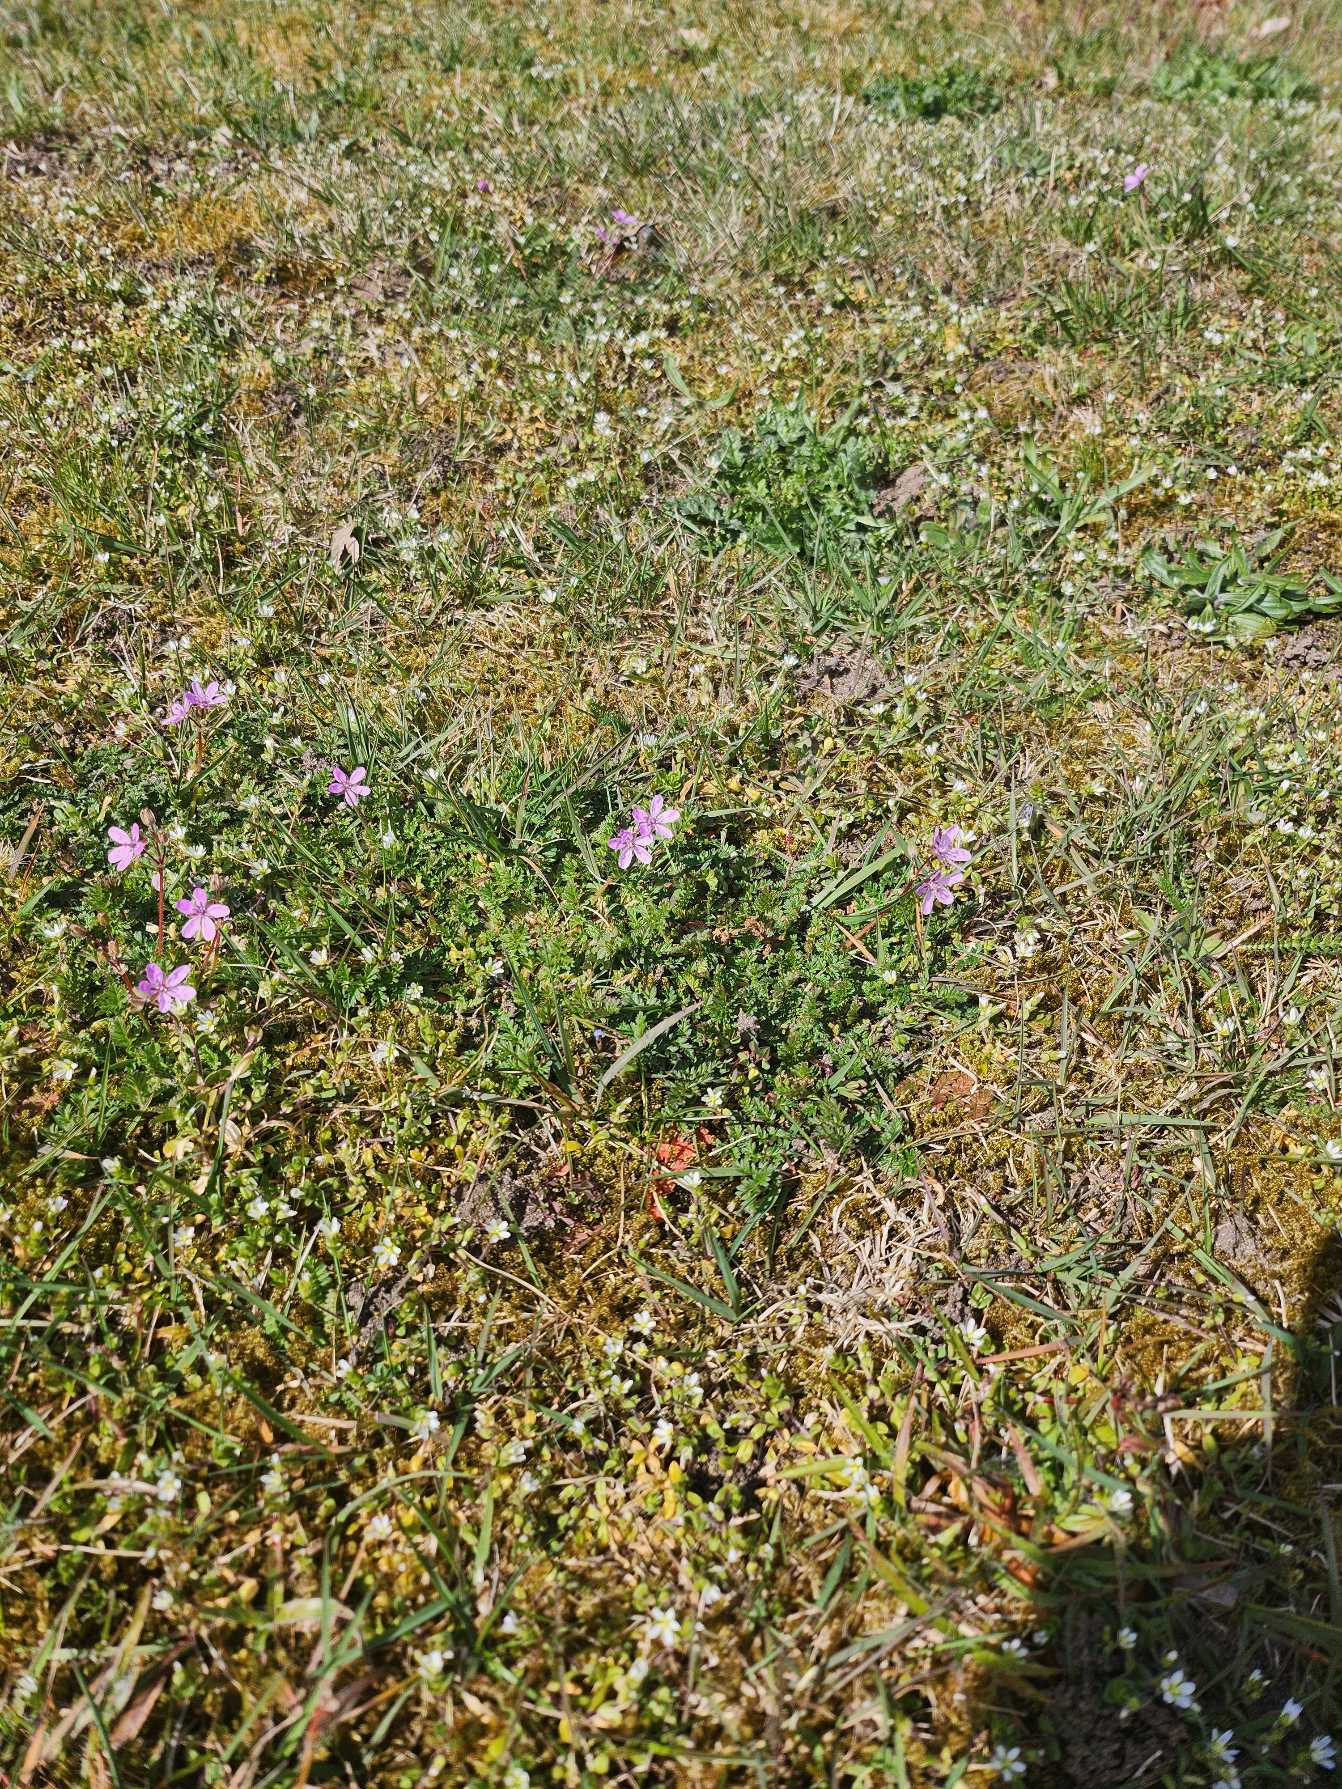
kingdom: Plantae
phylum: Tracheophyta
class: Magnoliopsida
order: Geraniales
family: Geraniaceae
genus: Erodium
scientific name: Erodium cicutarium
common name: Hejrenæb
